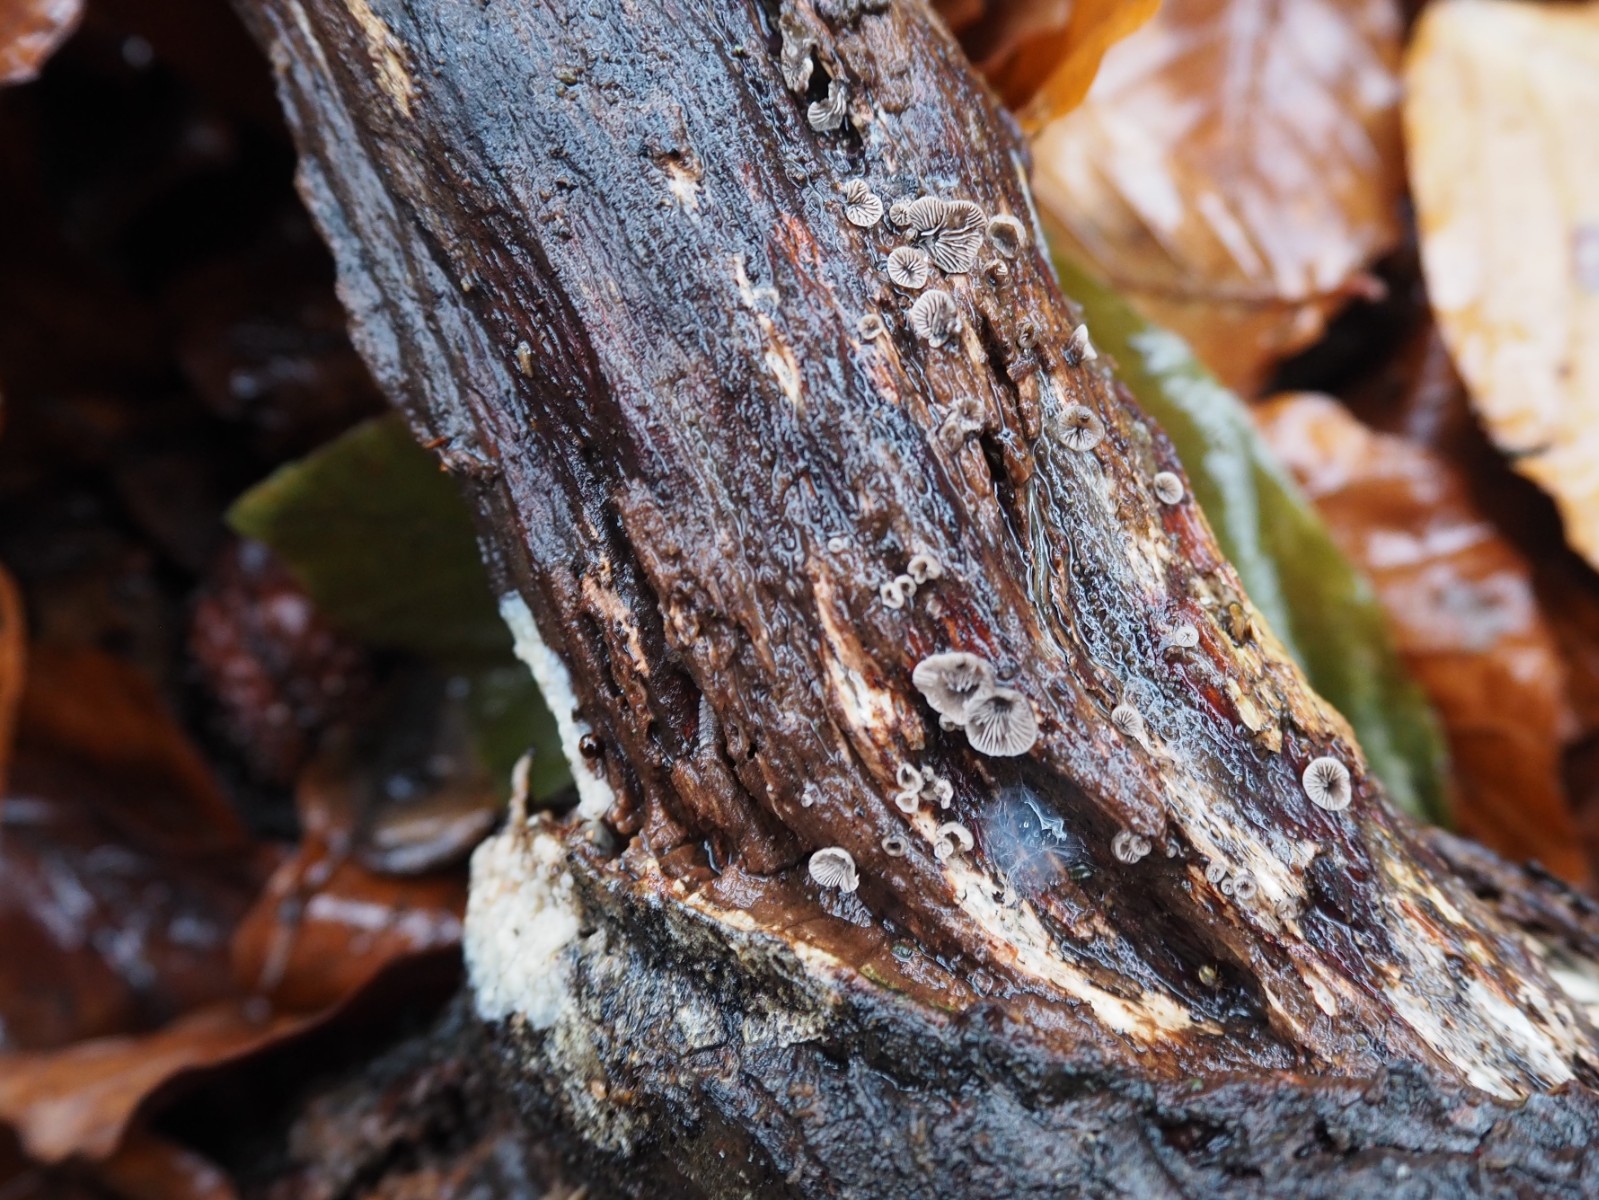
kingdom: Fungi
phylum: Basidiomycota
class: Agaricomycetes
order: Agaricales
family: Pleurotaceae
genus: Resupinatus
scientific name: Resupinatus trichotis
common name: mørkfiltet barkhat
